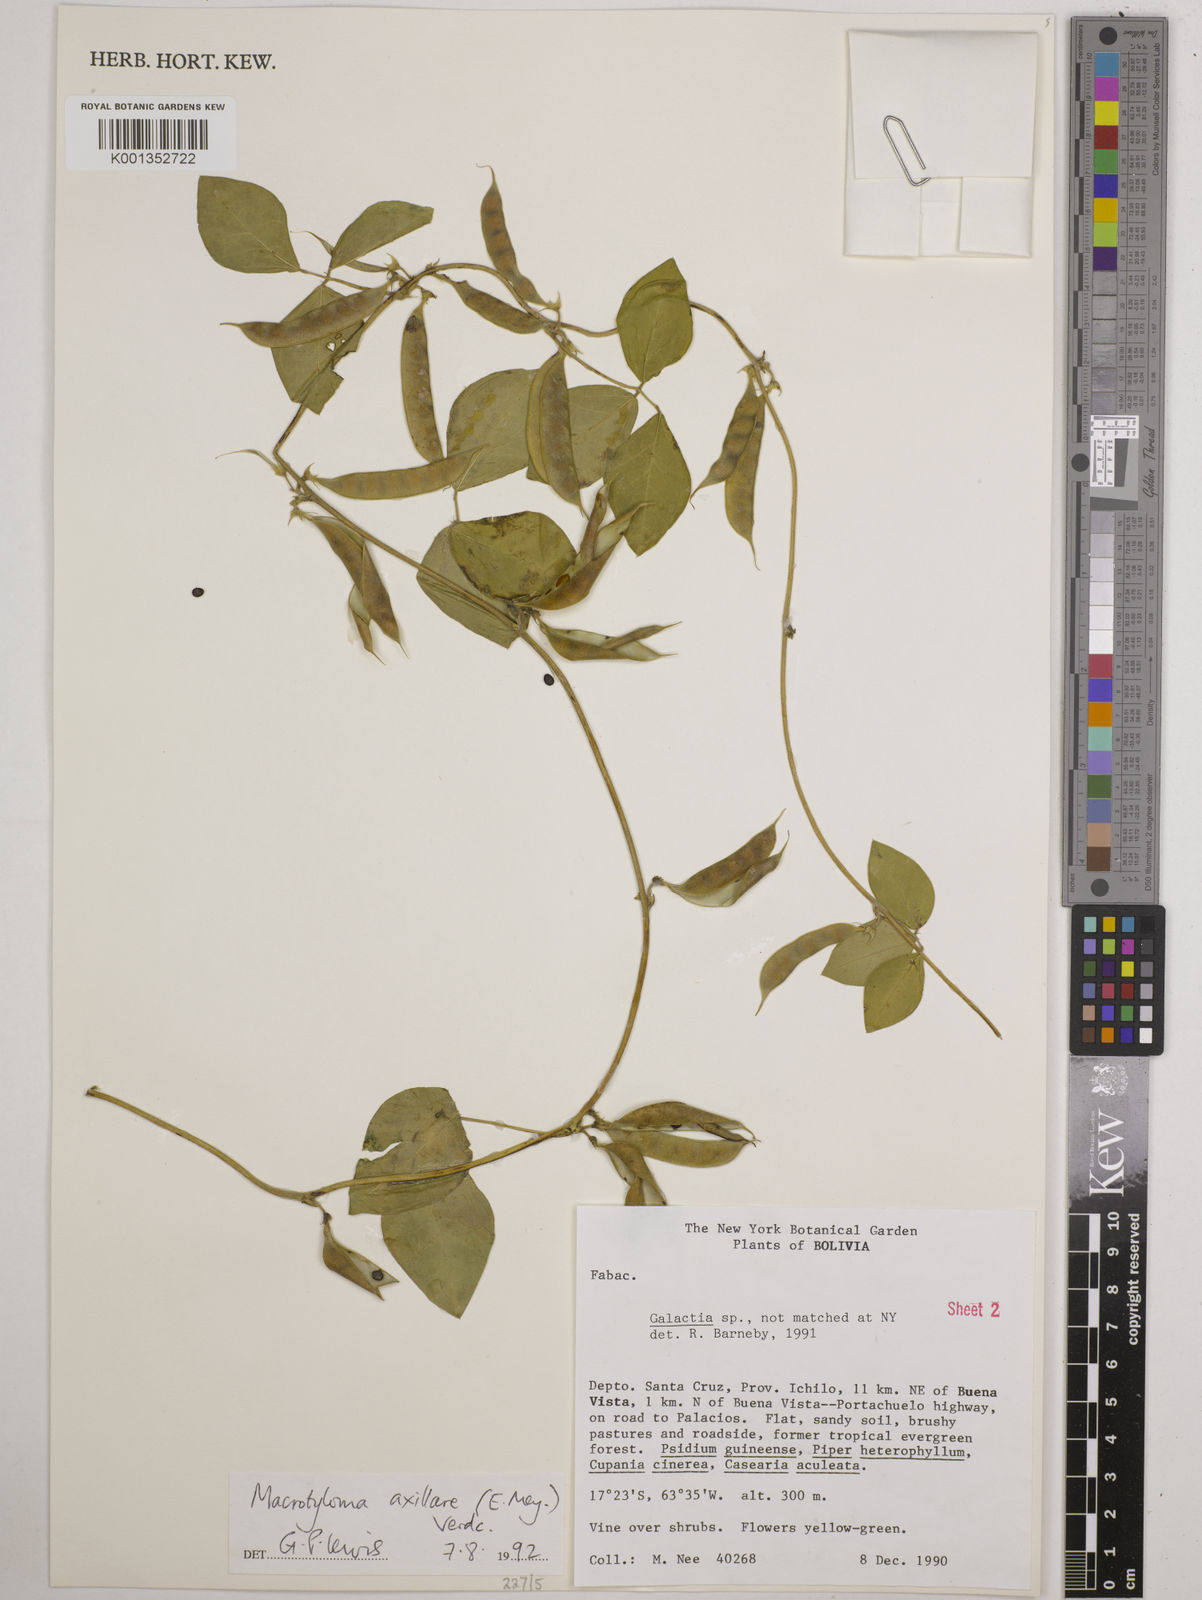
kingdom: Plantae
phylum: Tracheophyta
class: Magnoliopsida
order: Fabales
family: Fabaceae
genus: Macrotyloma
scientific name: Macrotyloma axillare
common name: Perennial horsegram
